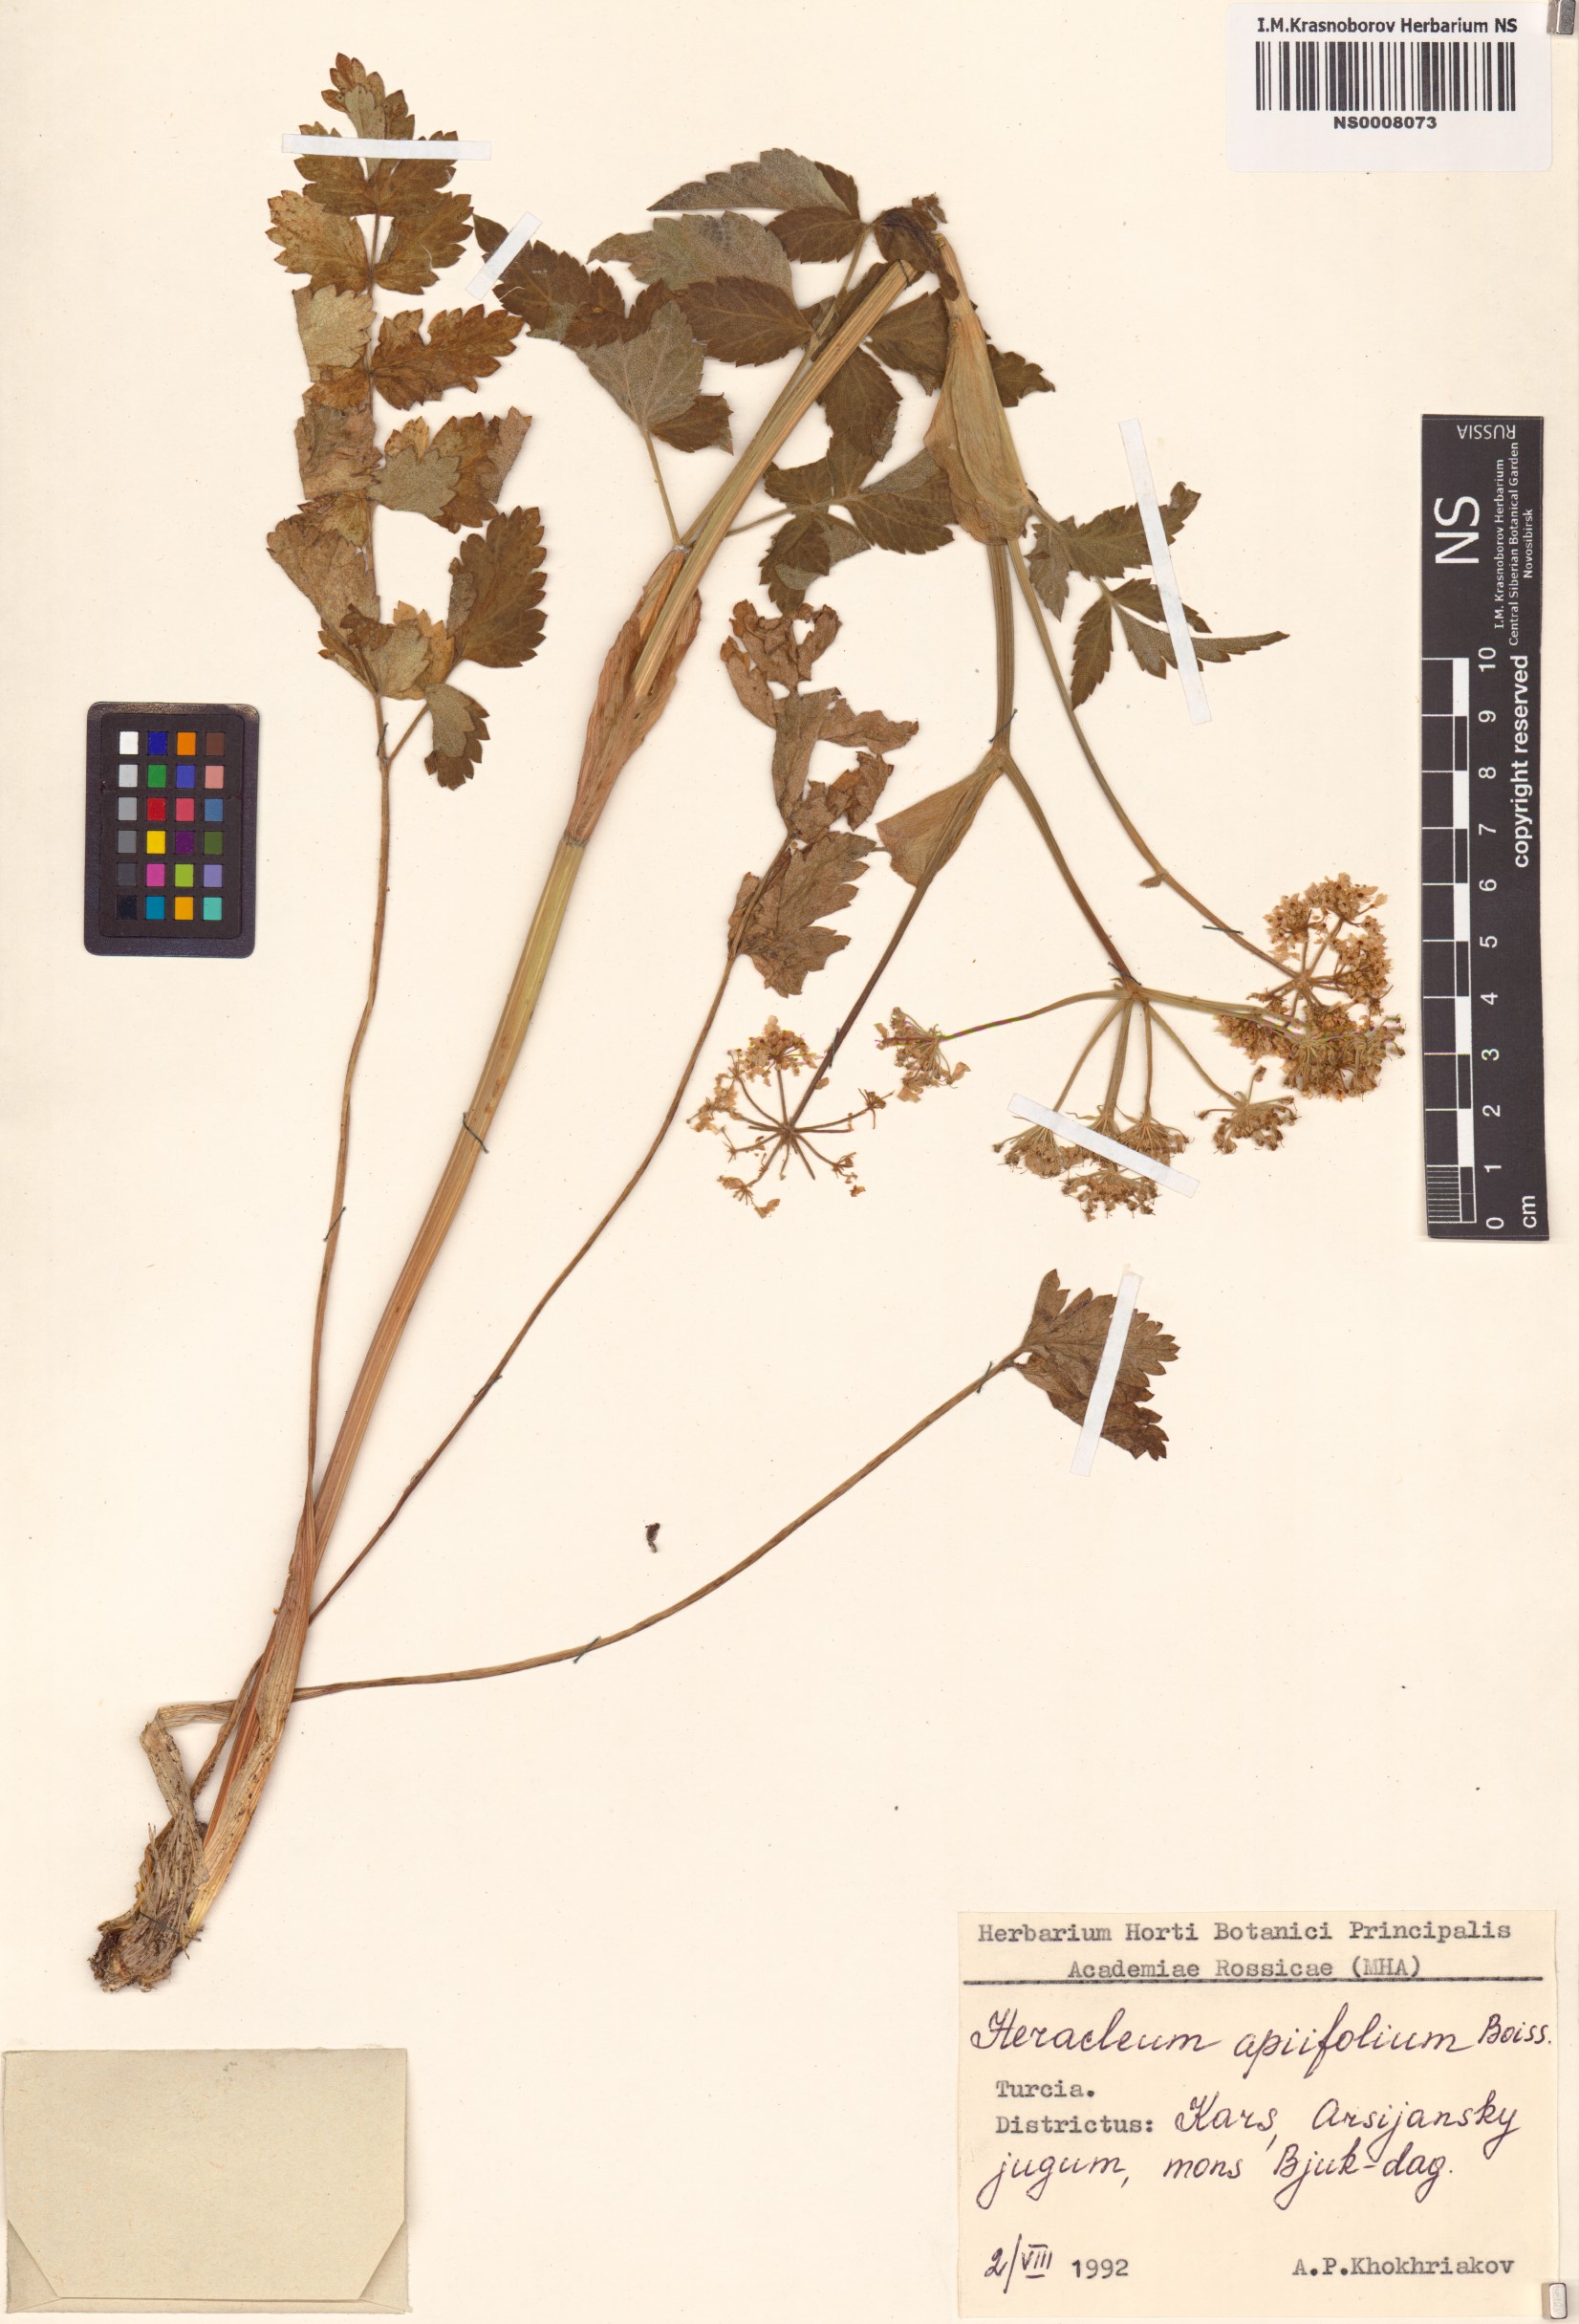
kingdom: Plantae
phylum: Tracheophyta
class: Magnoliopsida
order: Apiales
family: Apiaceae
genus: Heracleum
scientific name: Heracleum apiifolium
